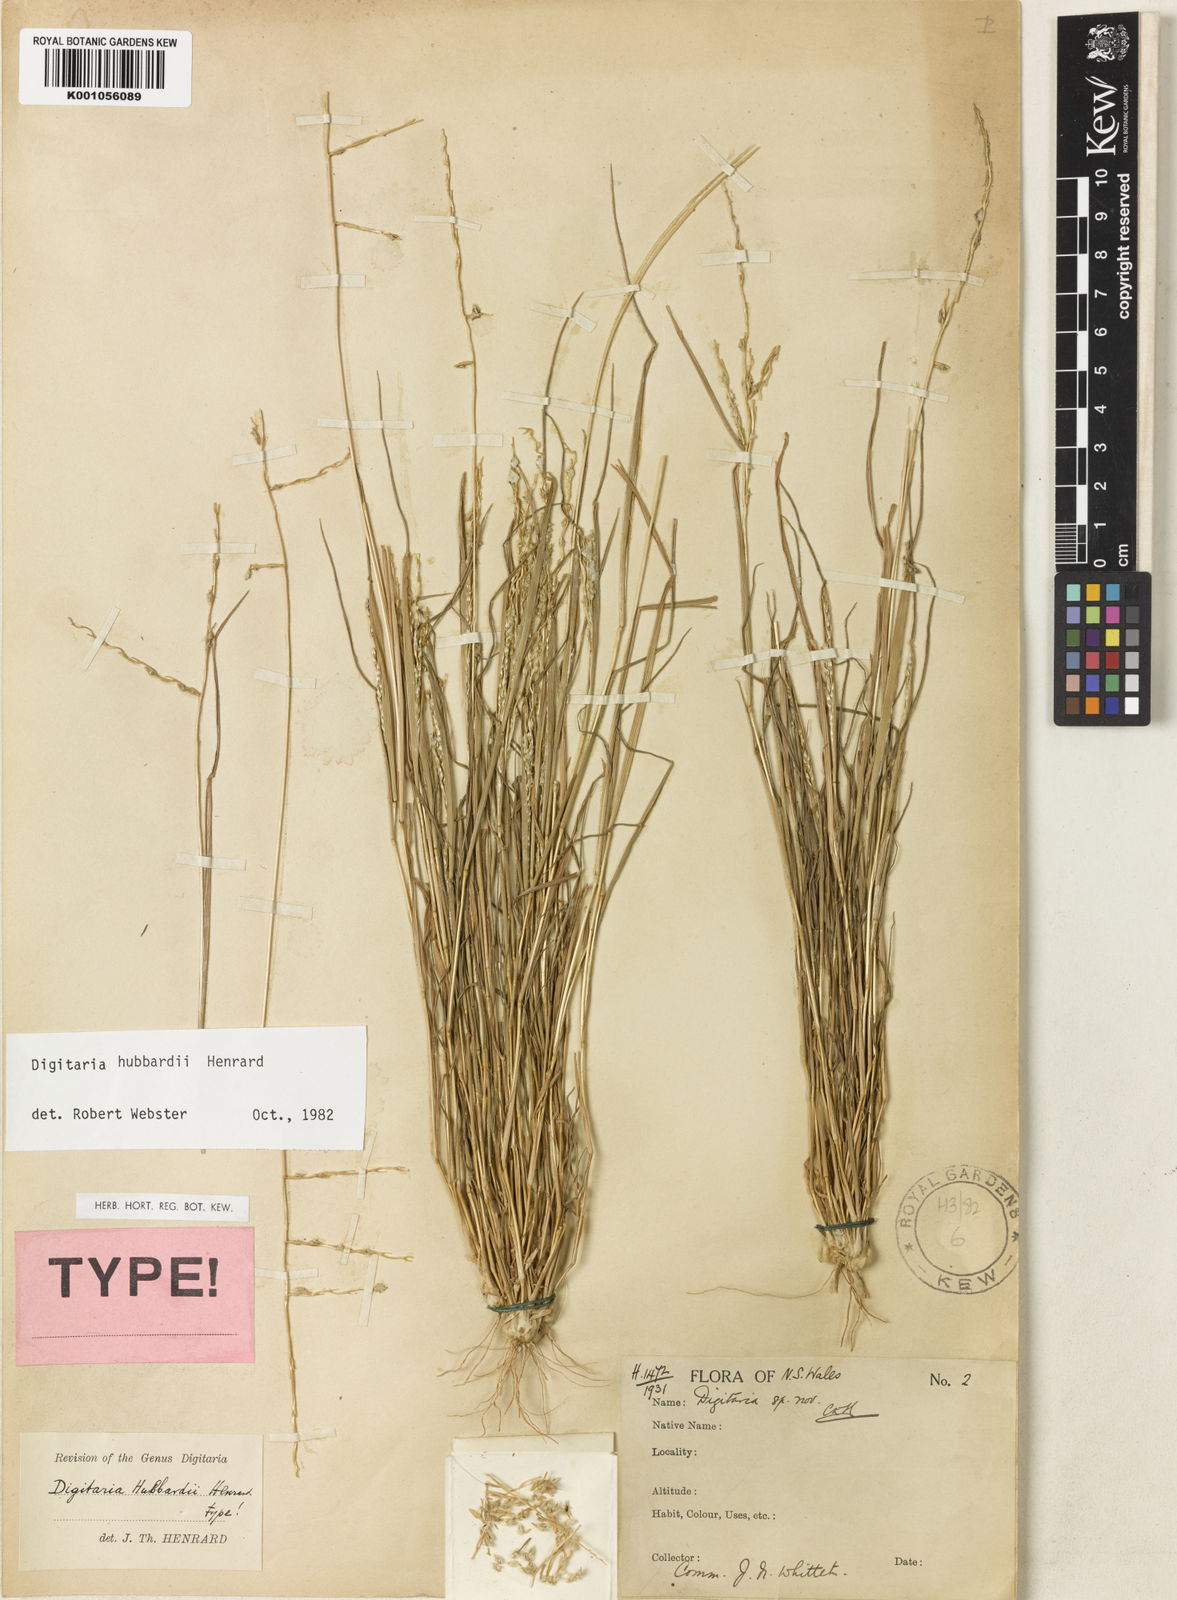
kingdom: Plantae
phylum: Tracheophyta
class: Liliopsida
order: Poales
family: Poaceae
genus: Digitaria
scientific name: Digitaria hubbardii
